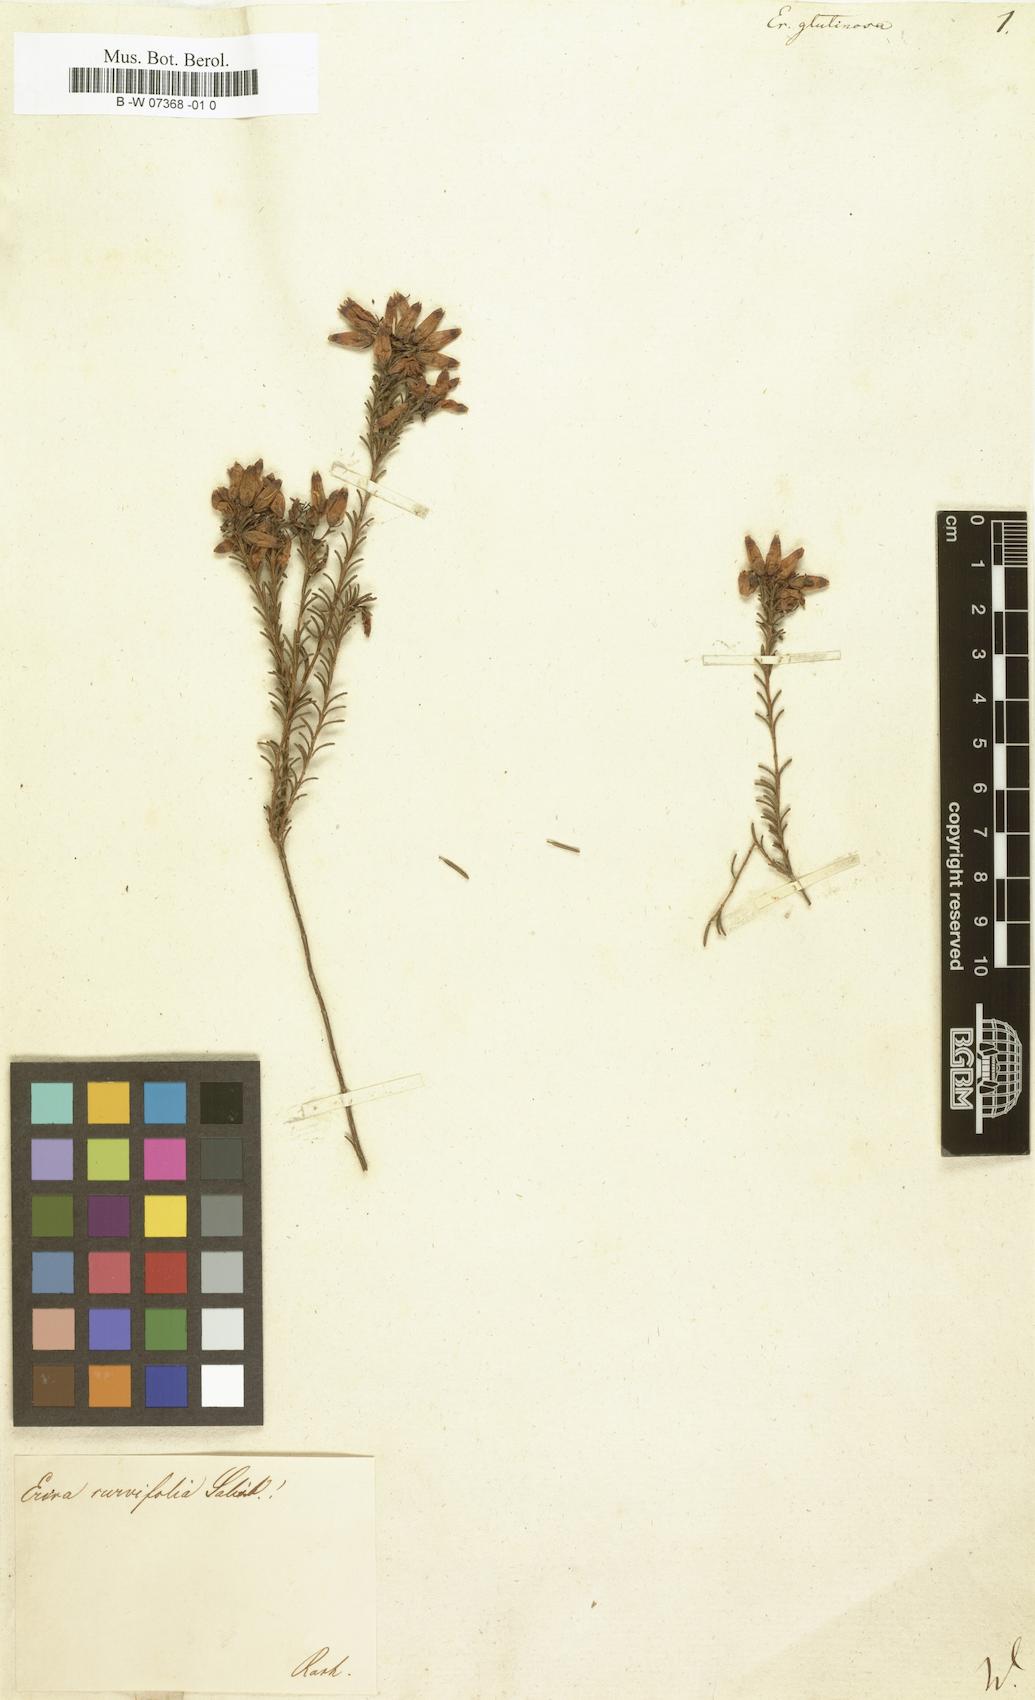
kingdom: Plantae
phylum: Tracheophyta
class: Magnoliopsida
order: Ericales
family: Ericaceae
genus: Erica
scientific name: Erica glutinosa
